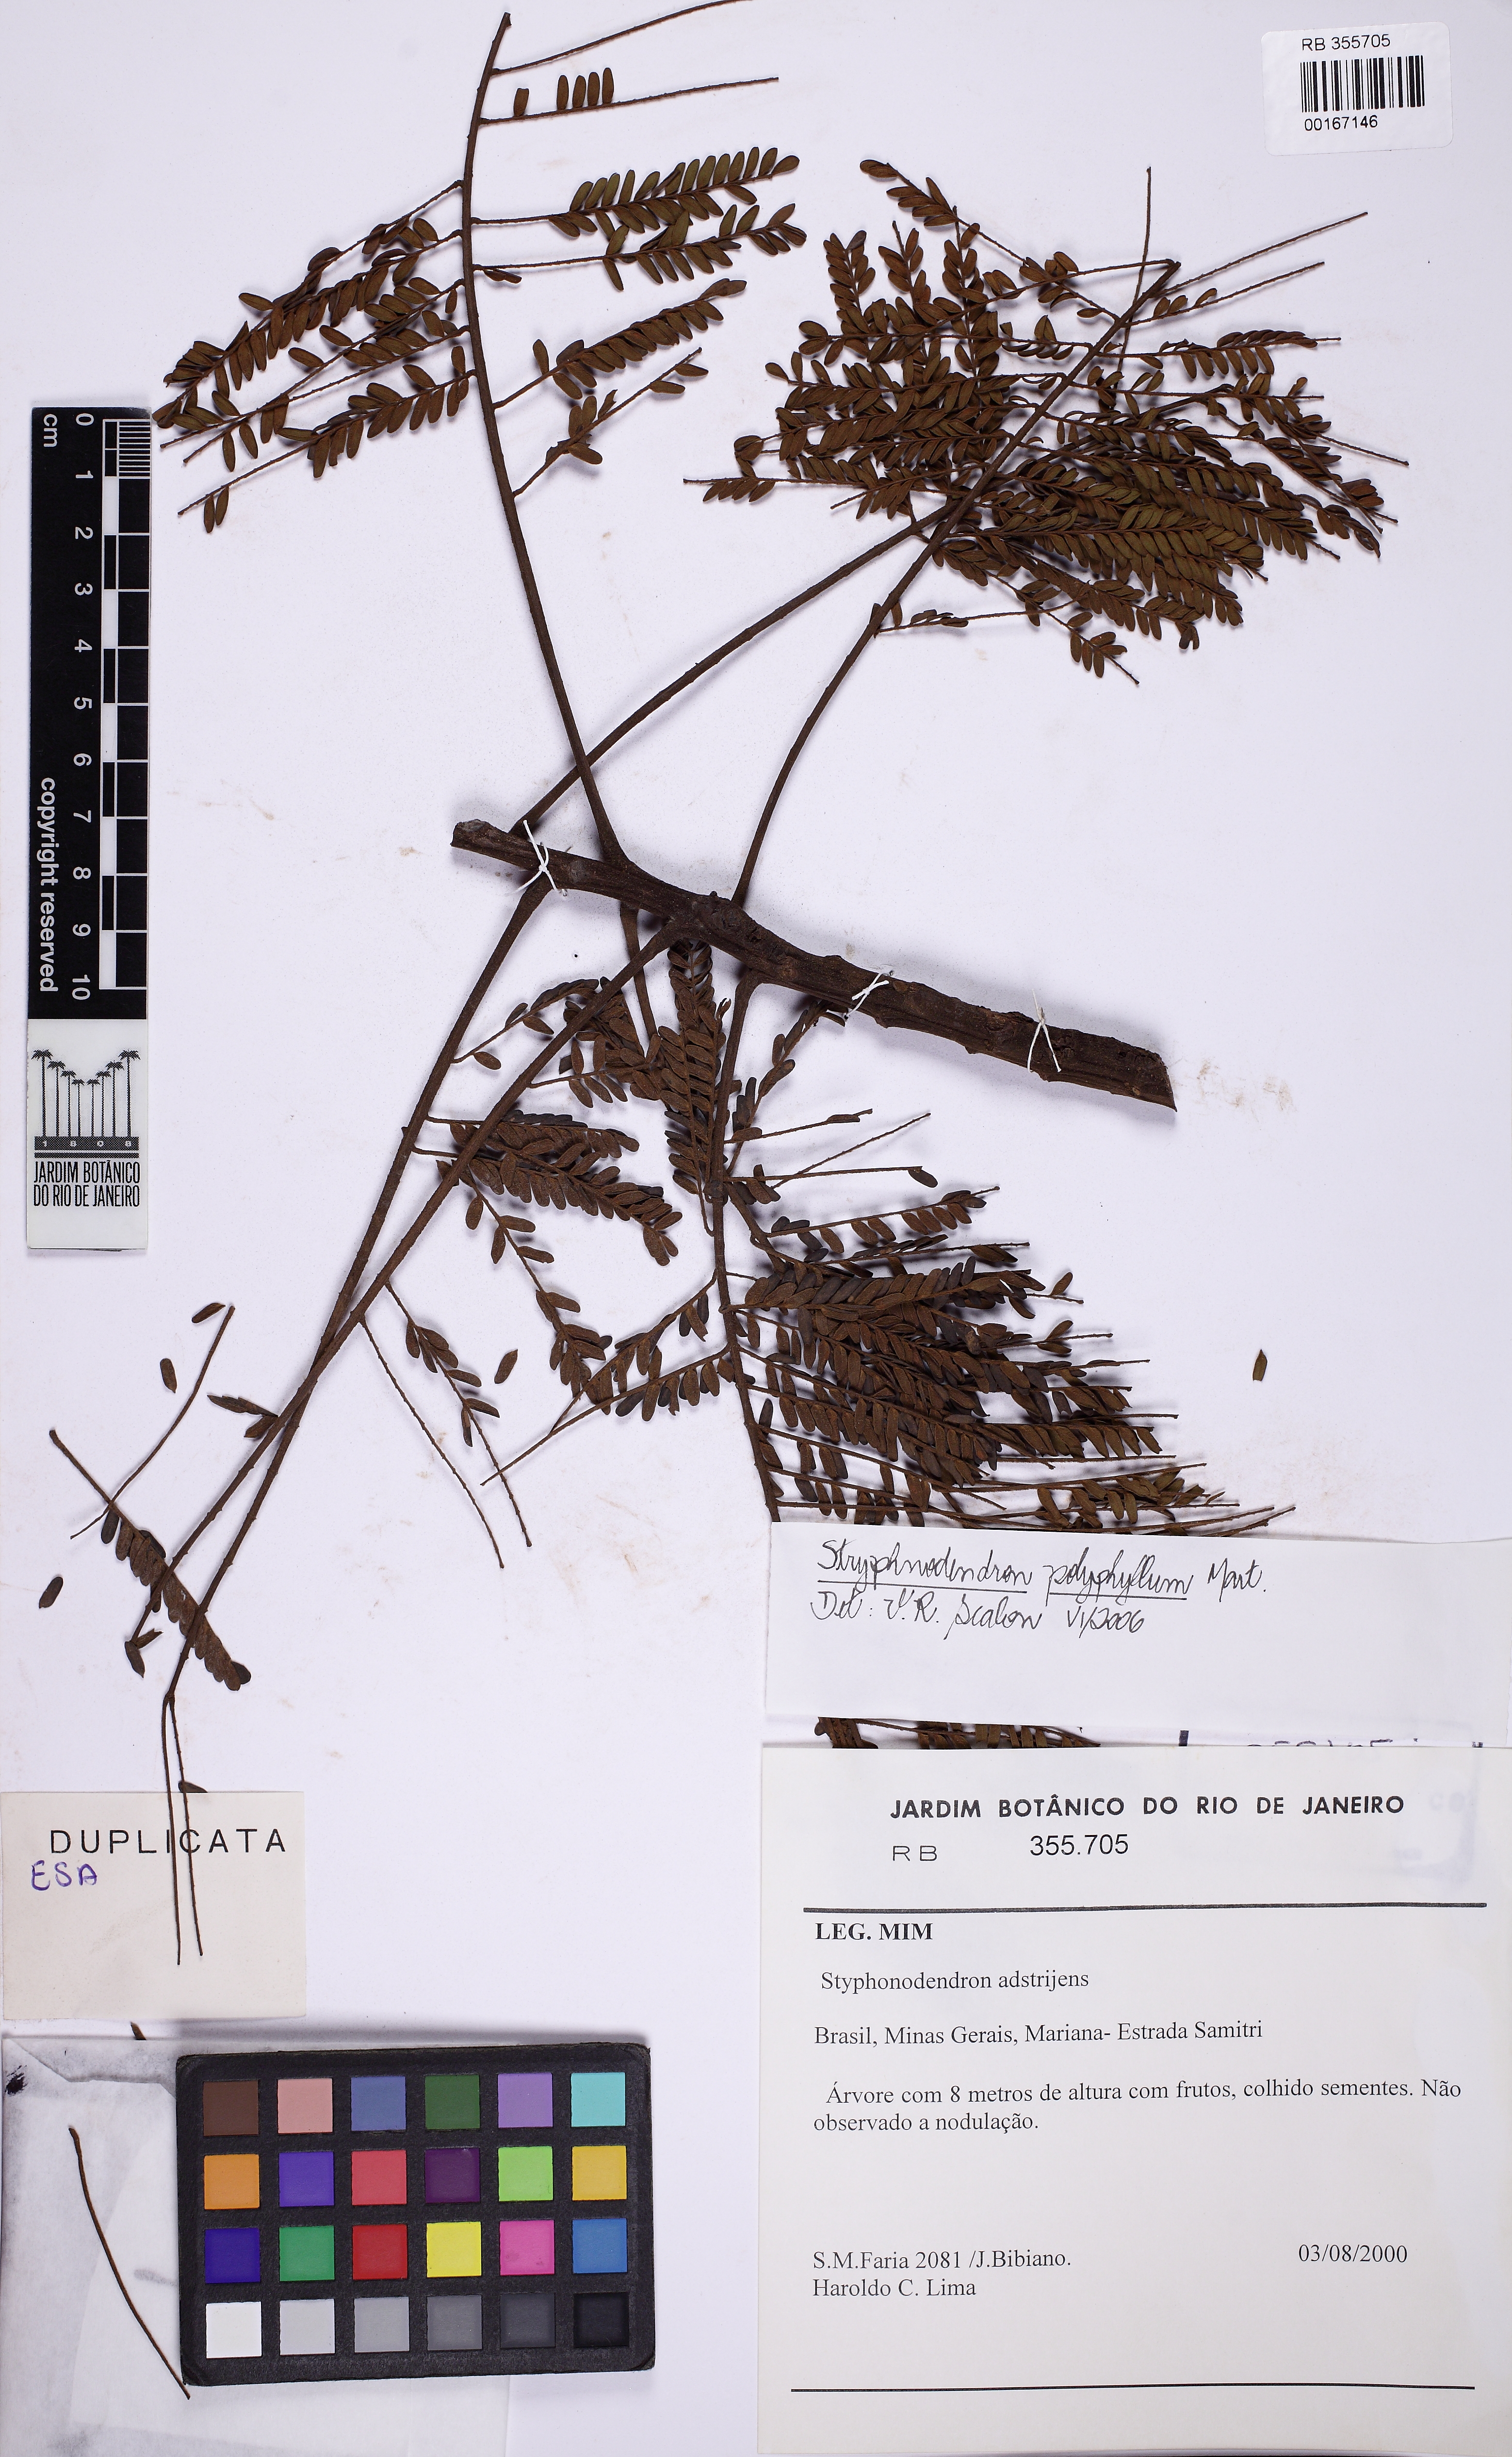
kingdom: Plantae
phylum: Tracheophyta
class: Magnoliopsida
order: Fabales
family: Fabaceae
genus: Stryphnodendron
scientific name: Stryphnodendron polyphyllum
